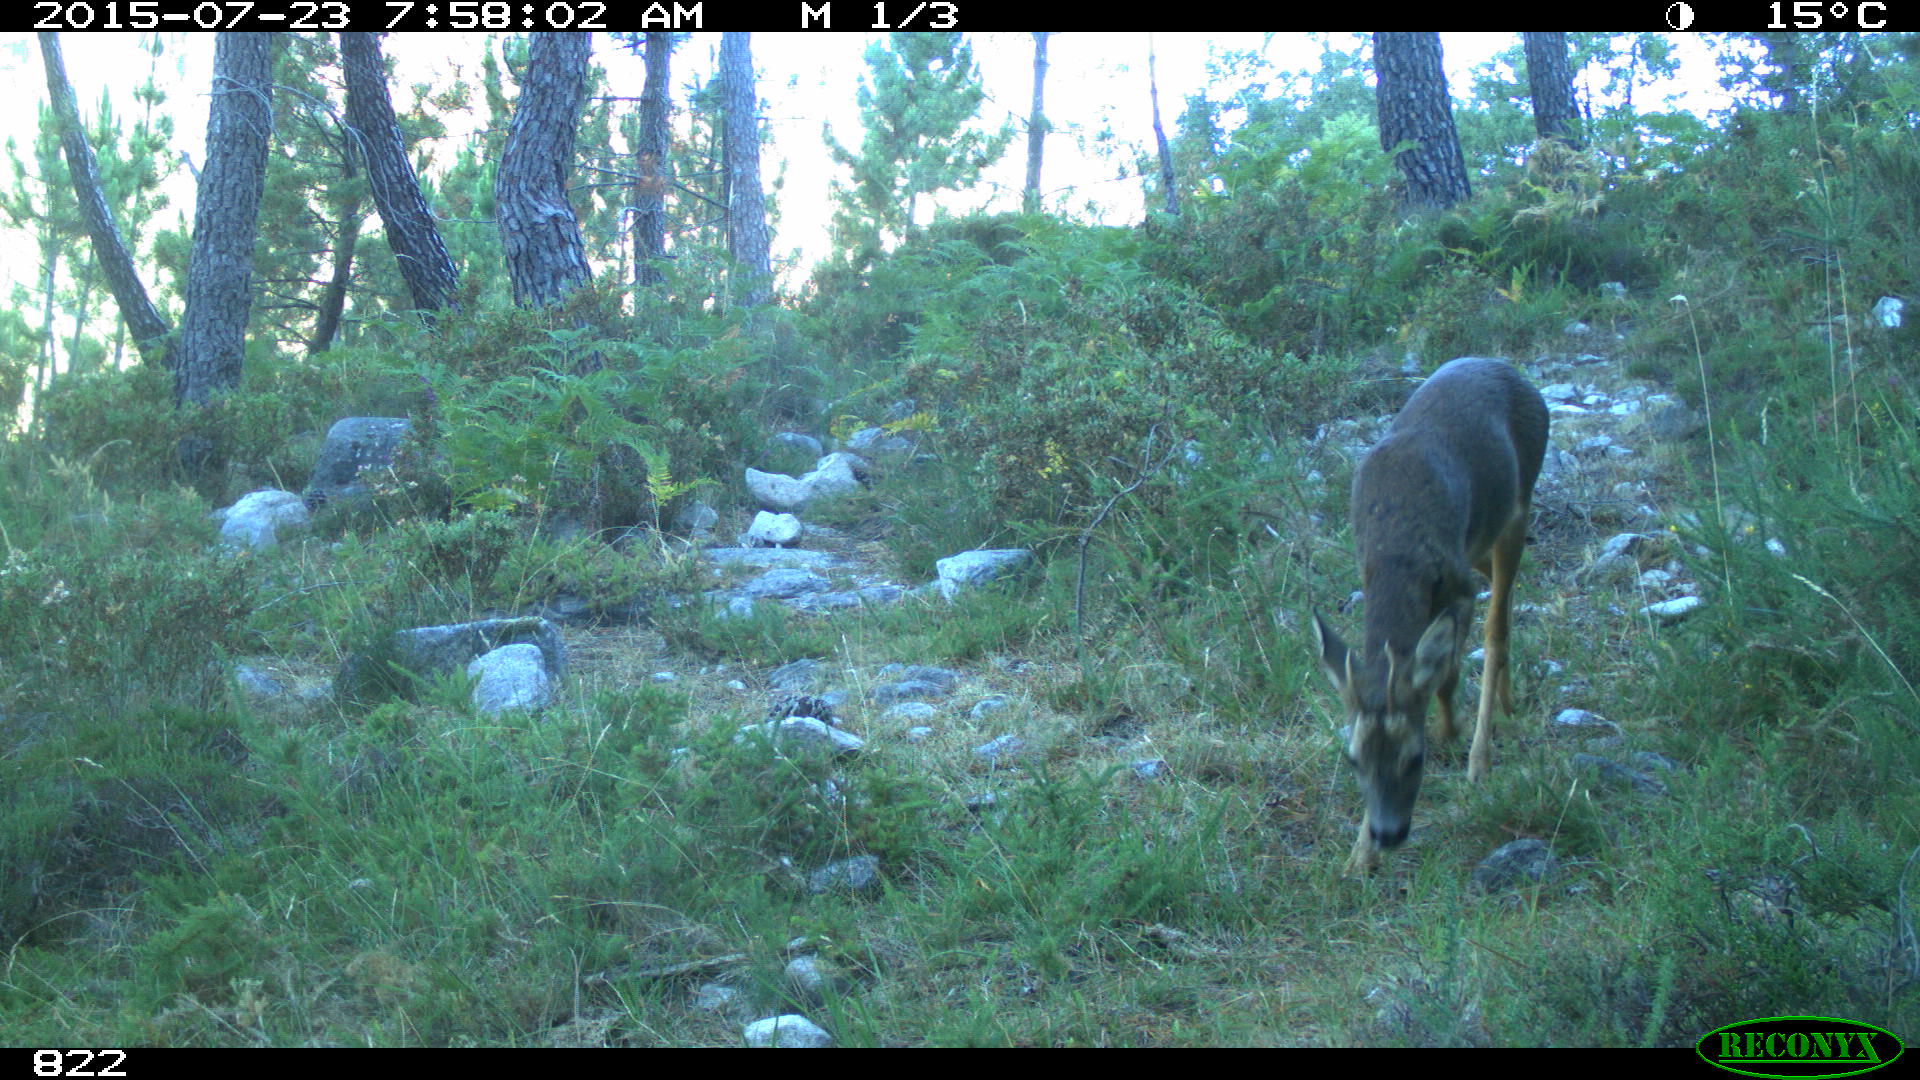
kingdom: Animalia
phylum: Chordata
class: Mammalia
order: Artiodactyla
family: Cervidae
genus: Capreolus
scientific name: Capreolus capreolus
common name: Western roe deer
